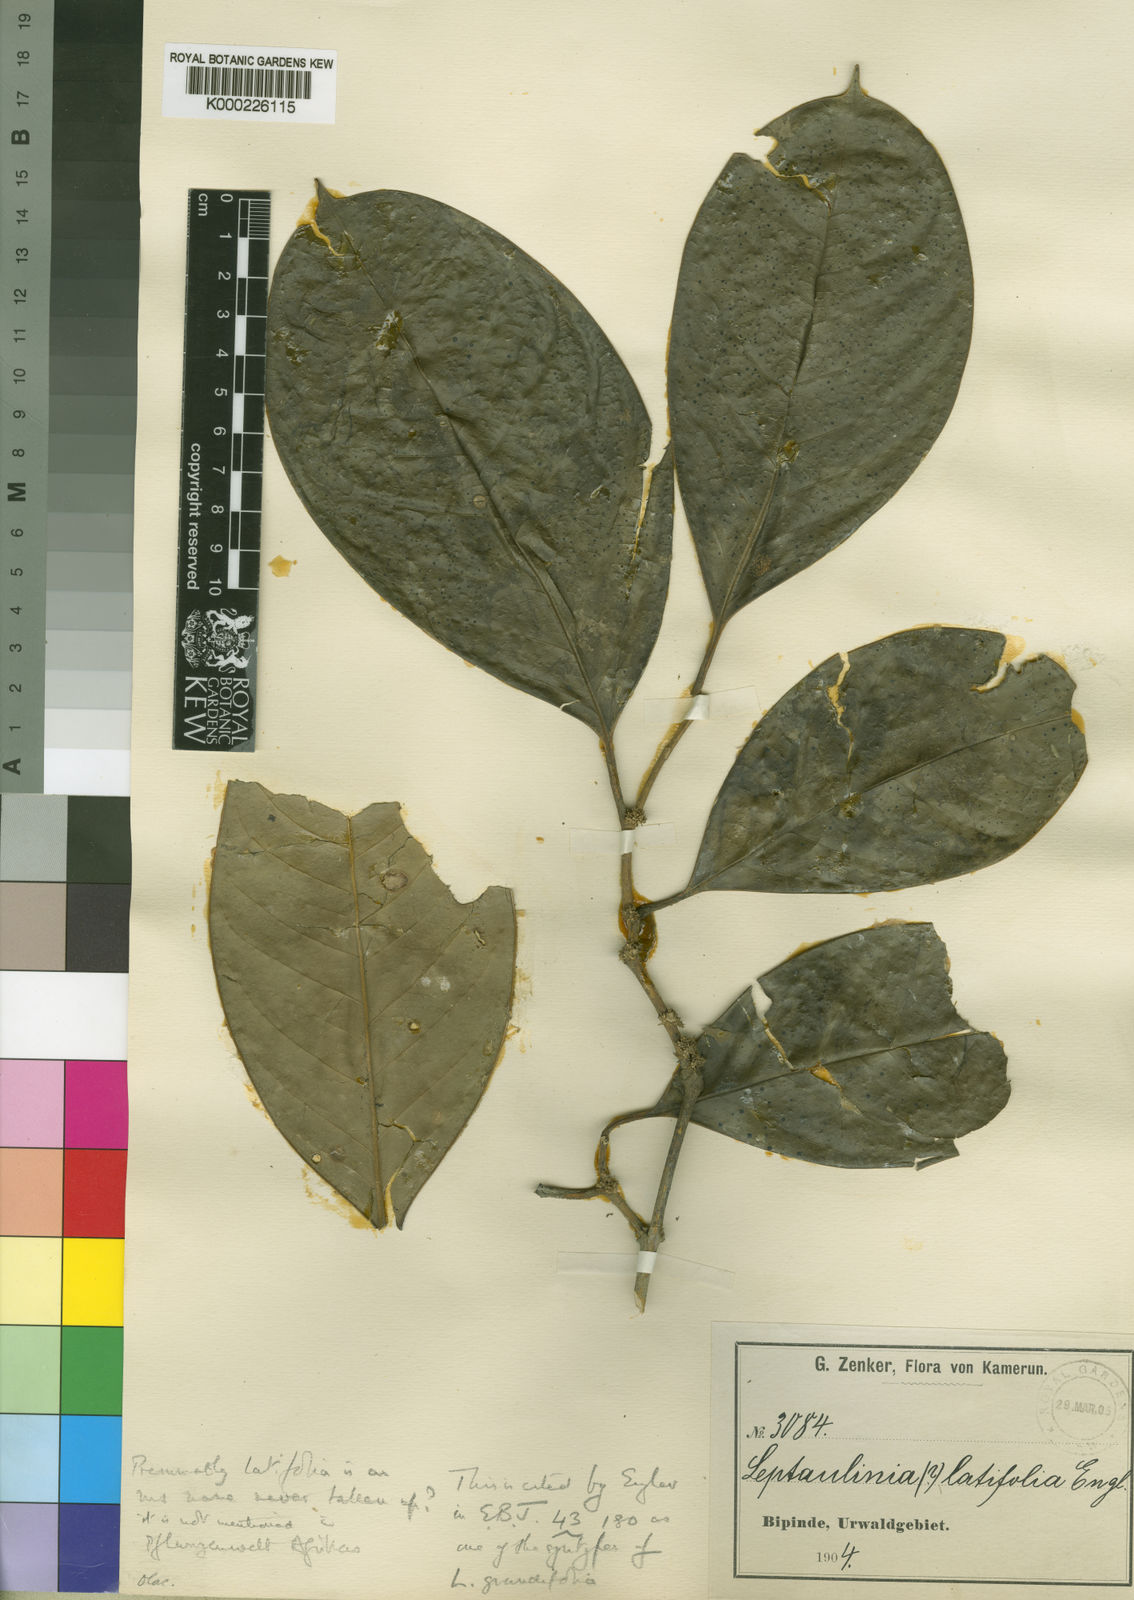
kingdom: Plantae
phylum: Tracheophyta
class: Magnoliopsida
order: Cardiopteridales
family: Cardiopteridaceae
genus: Leptaulus
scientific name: Leptaulus grandifolius
